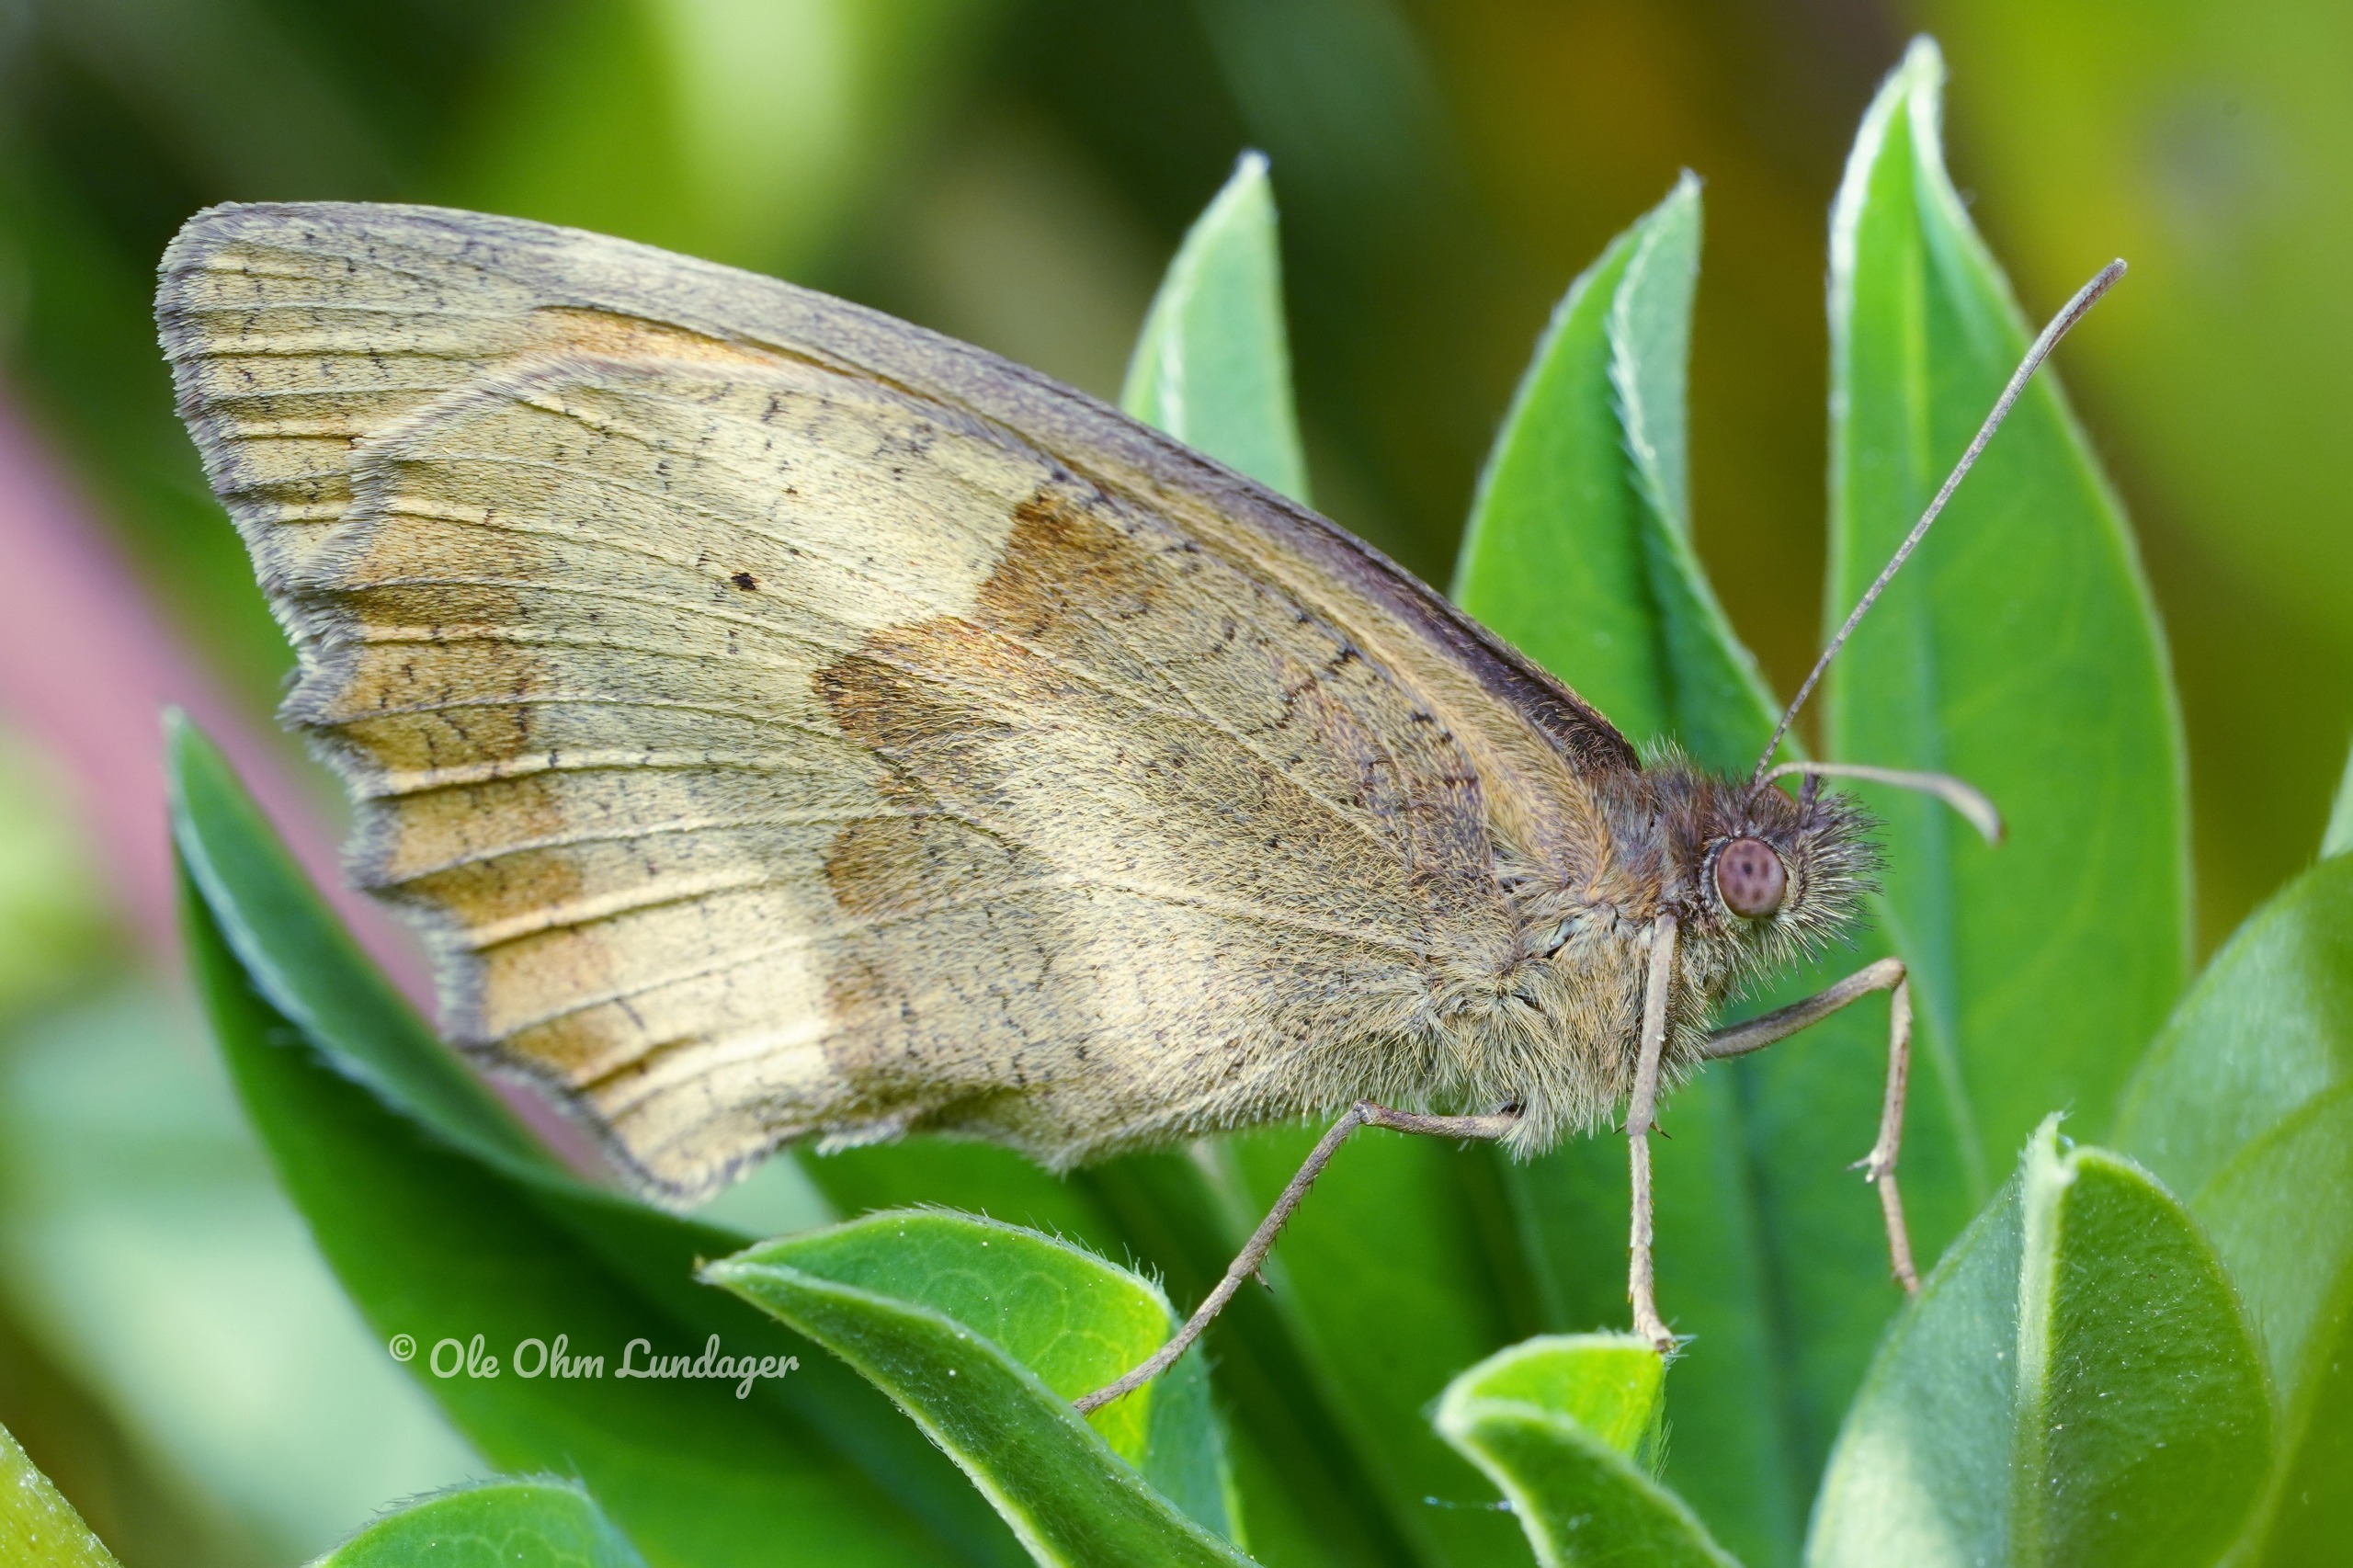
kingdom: Animalia
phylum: Arthropoda
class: Insecta
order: Lepidoptera
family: Nymphalidae
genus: Maniola
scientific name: Maniola jurtina
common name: Græsrandøje
